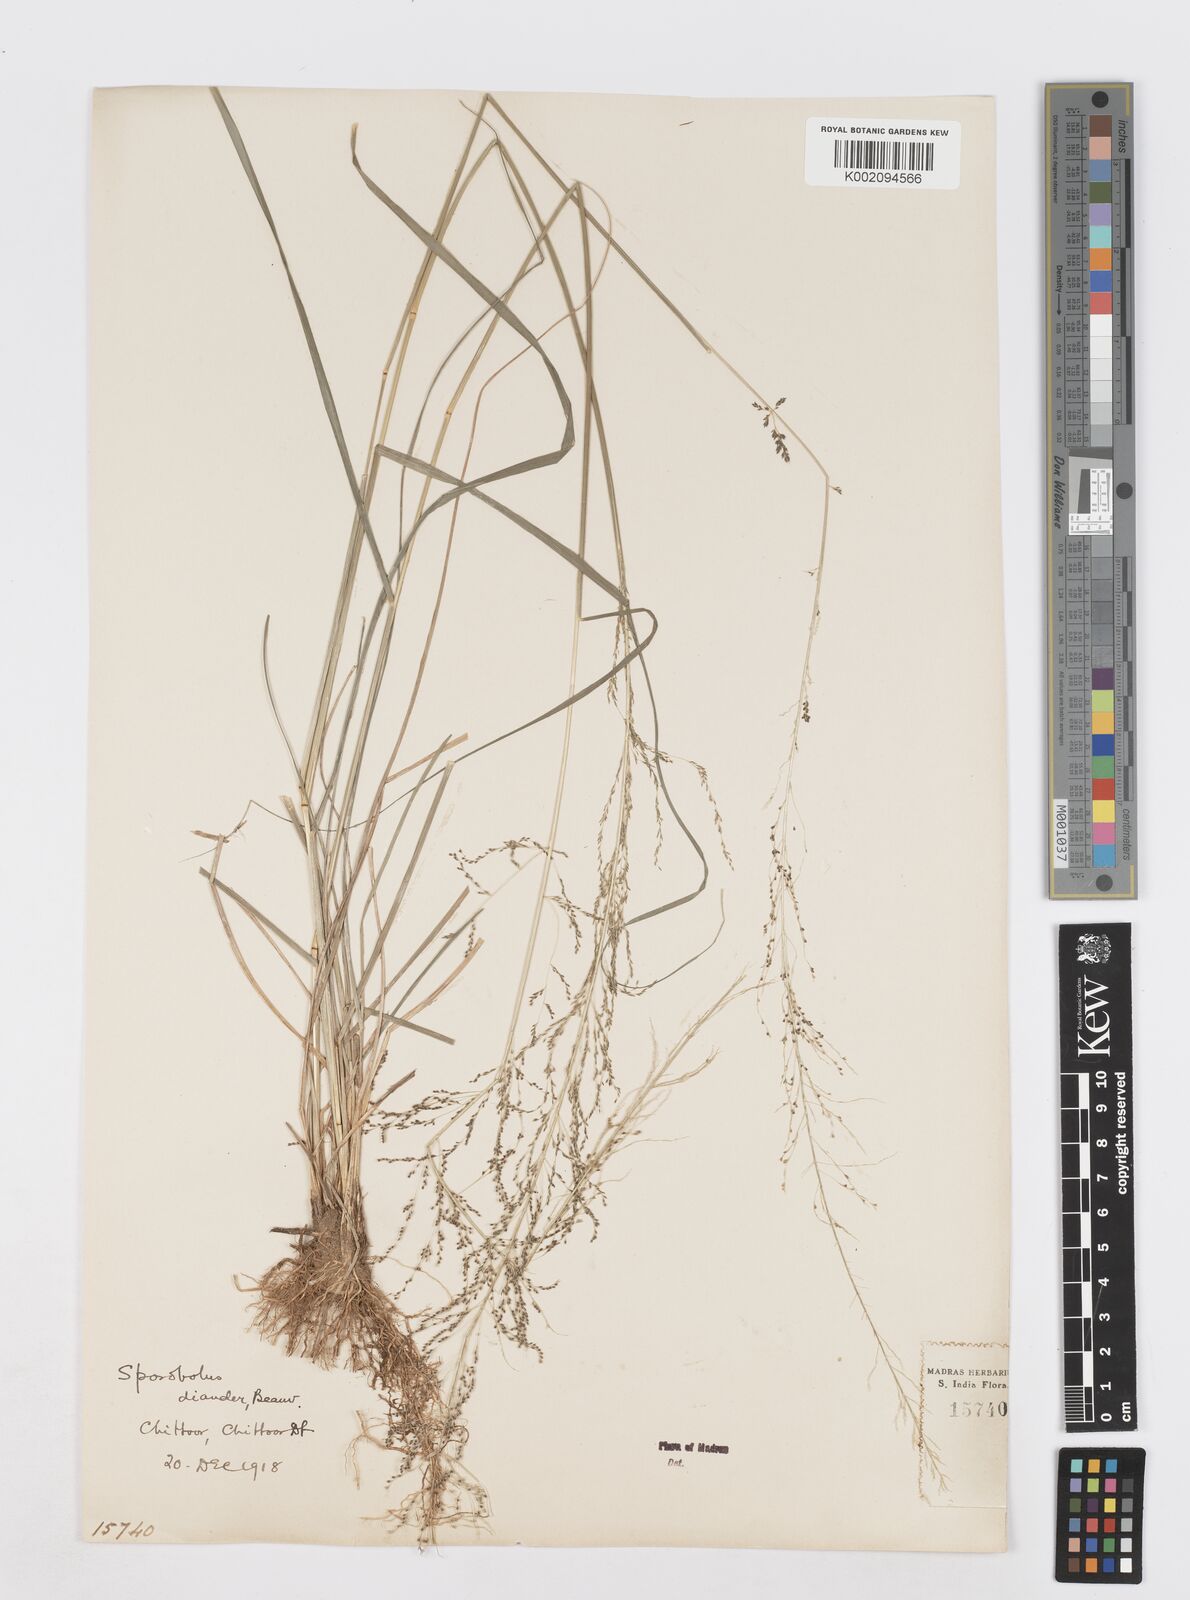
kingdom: Plantae
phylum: Tracheophyta
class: Liliopsida
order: Poales
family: Poaceae
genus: Sporobolus
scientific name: Sporobolus tenuissimus
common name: Tropical dropseed
